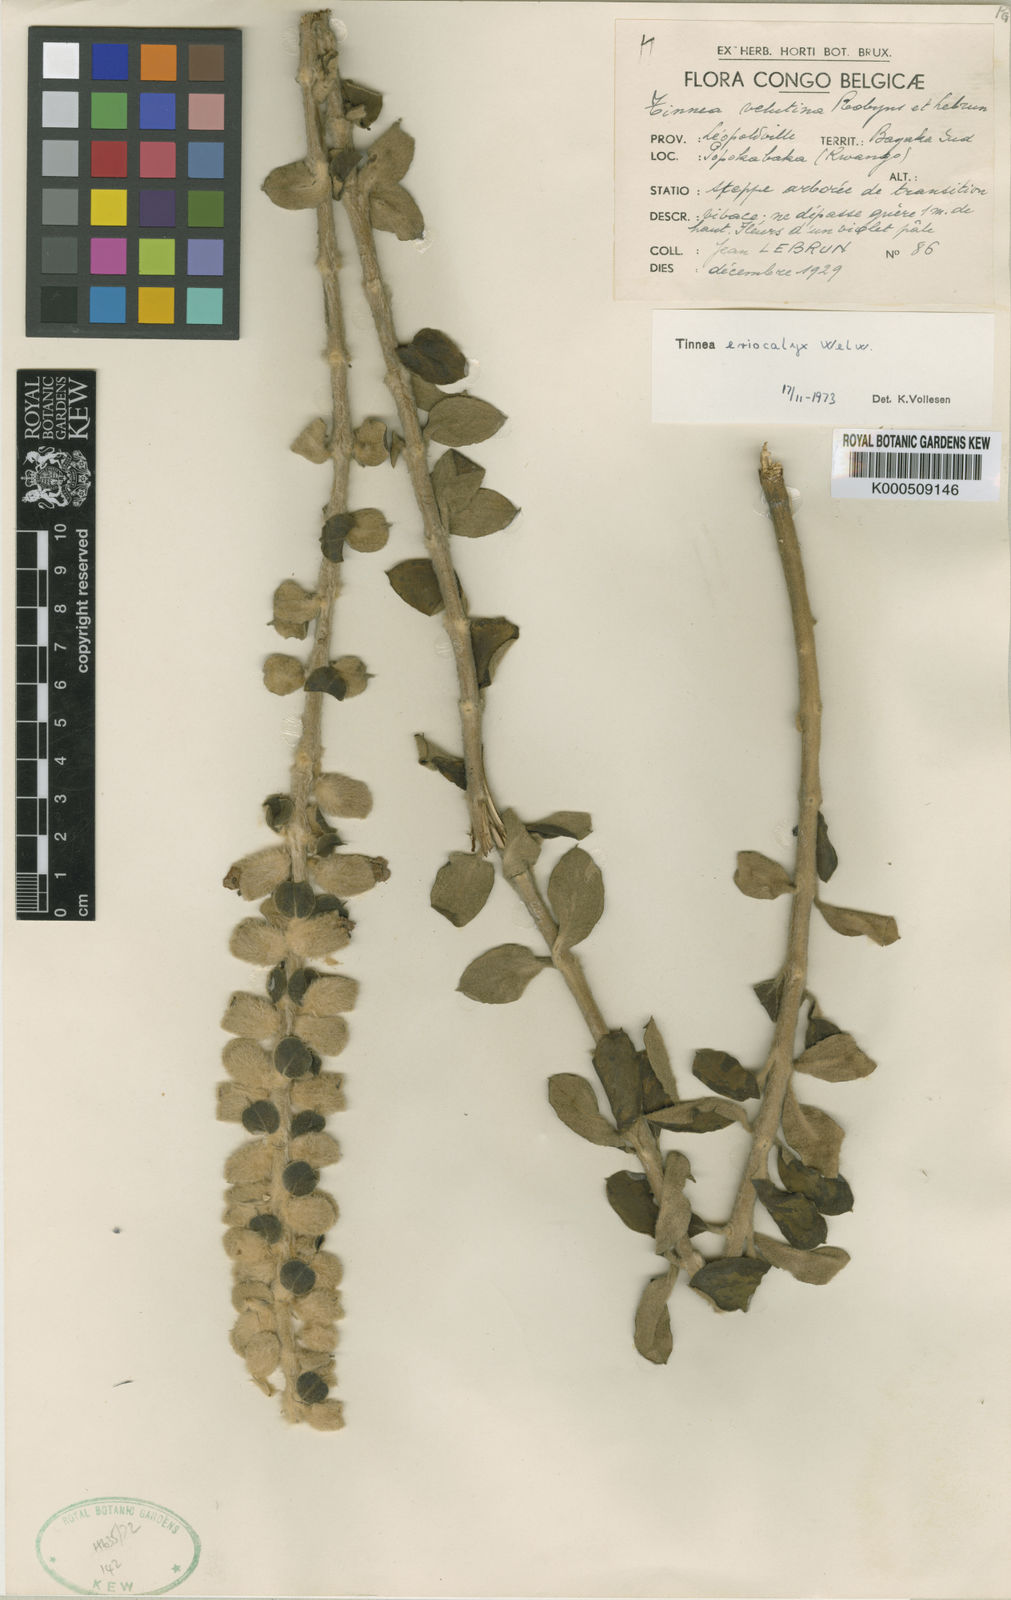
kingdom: Plantae
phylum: Tracheophyta
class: Magnoliopsida
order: Lamiales
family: Lamiaceae
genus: Tinnea
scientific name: Tinnea eriocalyx
